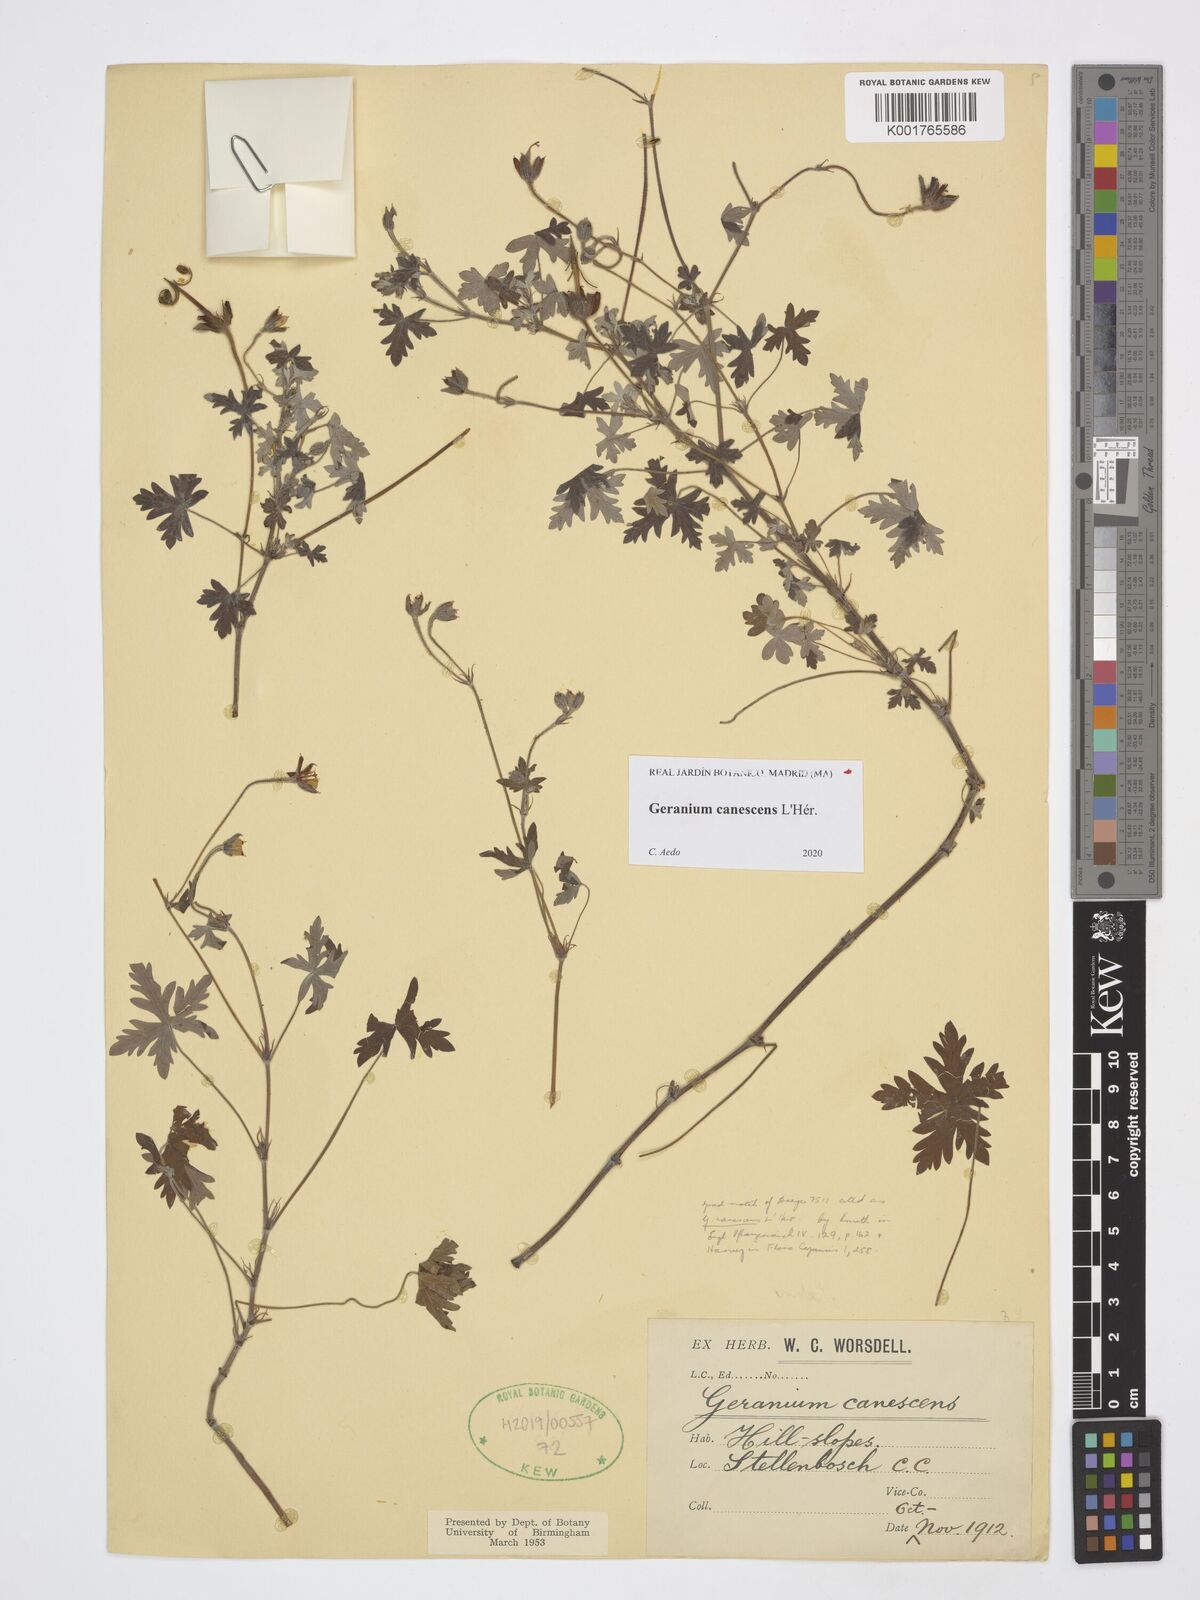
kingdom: Plantae
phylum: Tracheophyta
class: Magnoliopsida
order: Geraniales
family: Geraniaceae
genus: Geranium
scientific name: Geranium
